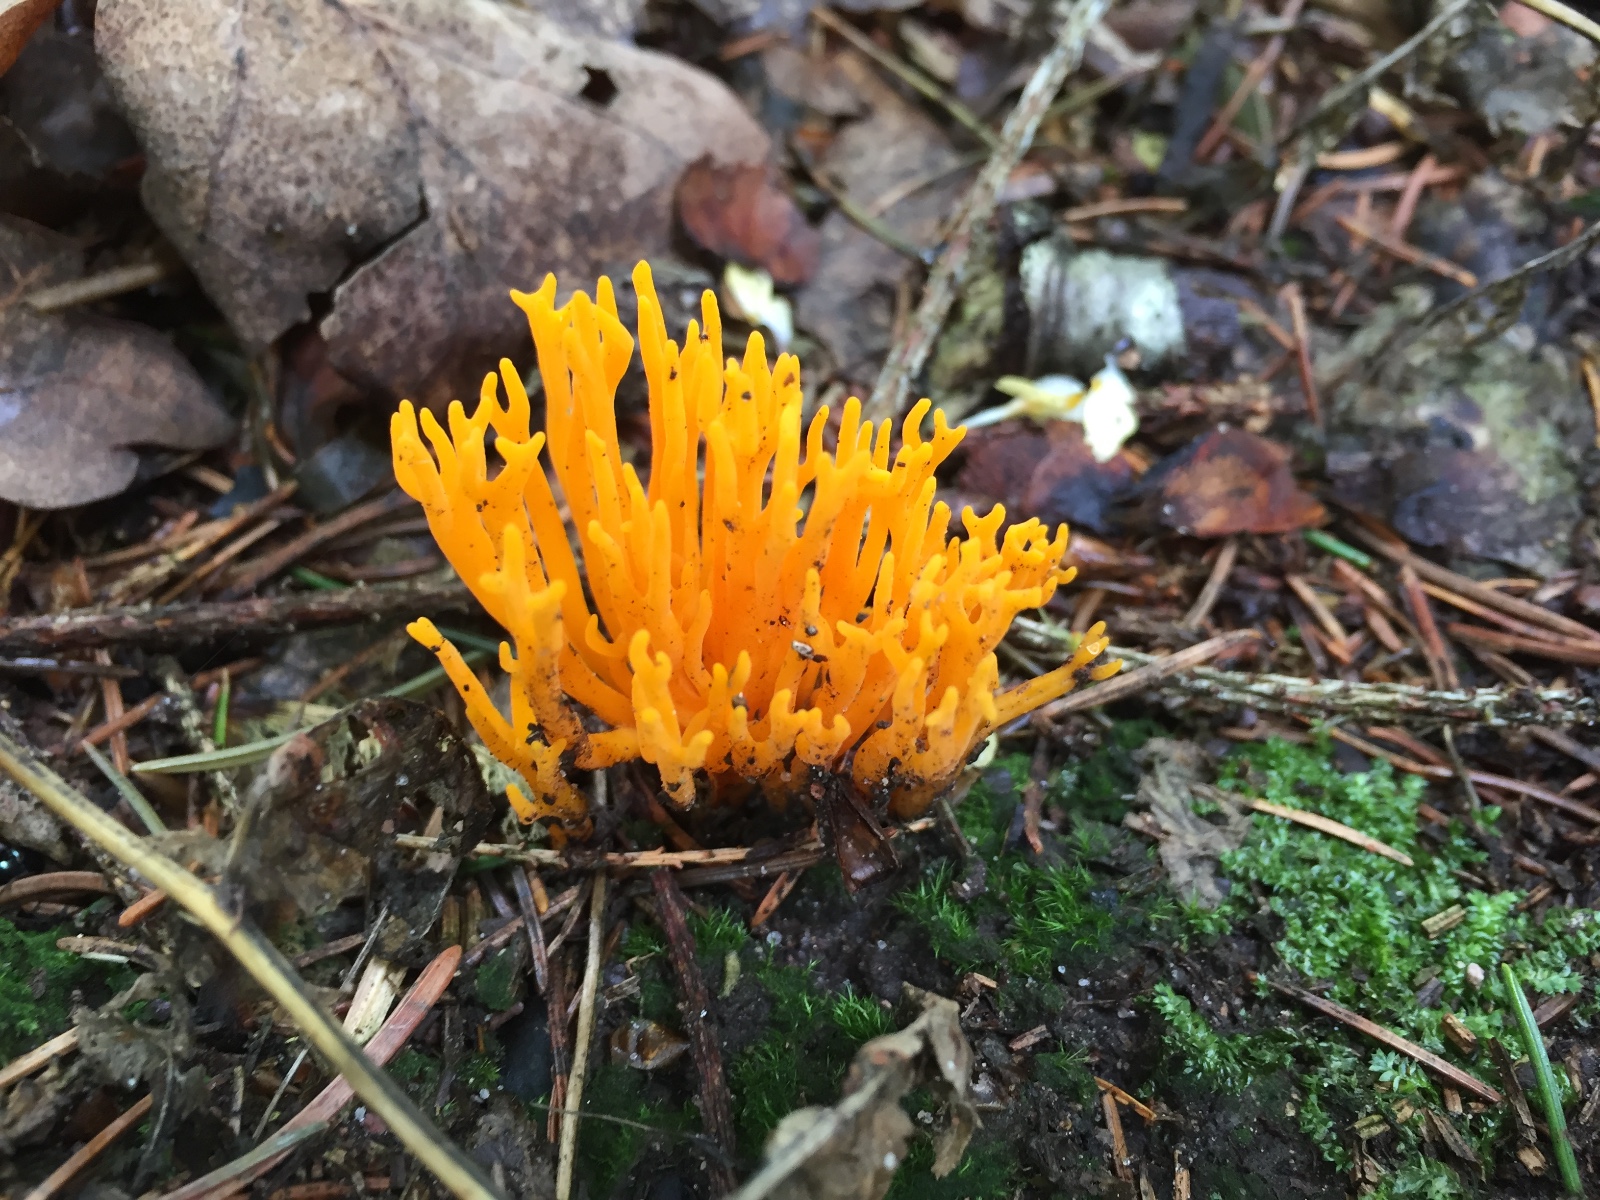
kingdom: Fungi
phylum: Basidiomycota
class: Dacrymycetes
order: Dacrymycetales
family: Dacrymycetaceae
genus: Calocera
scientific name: Calocera viscosa
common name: almindelig guldgaffel
